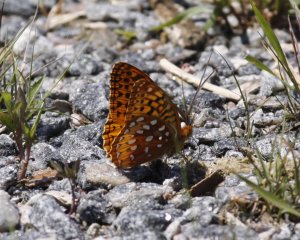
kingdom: Animalia
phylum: Arthropoda
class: Insecta
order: Lepidoptera
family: Nymphalidae
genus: Speyeria
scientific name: Speyeria aphrodite
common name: Aphrodite Fritillary
